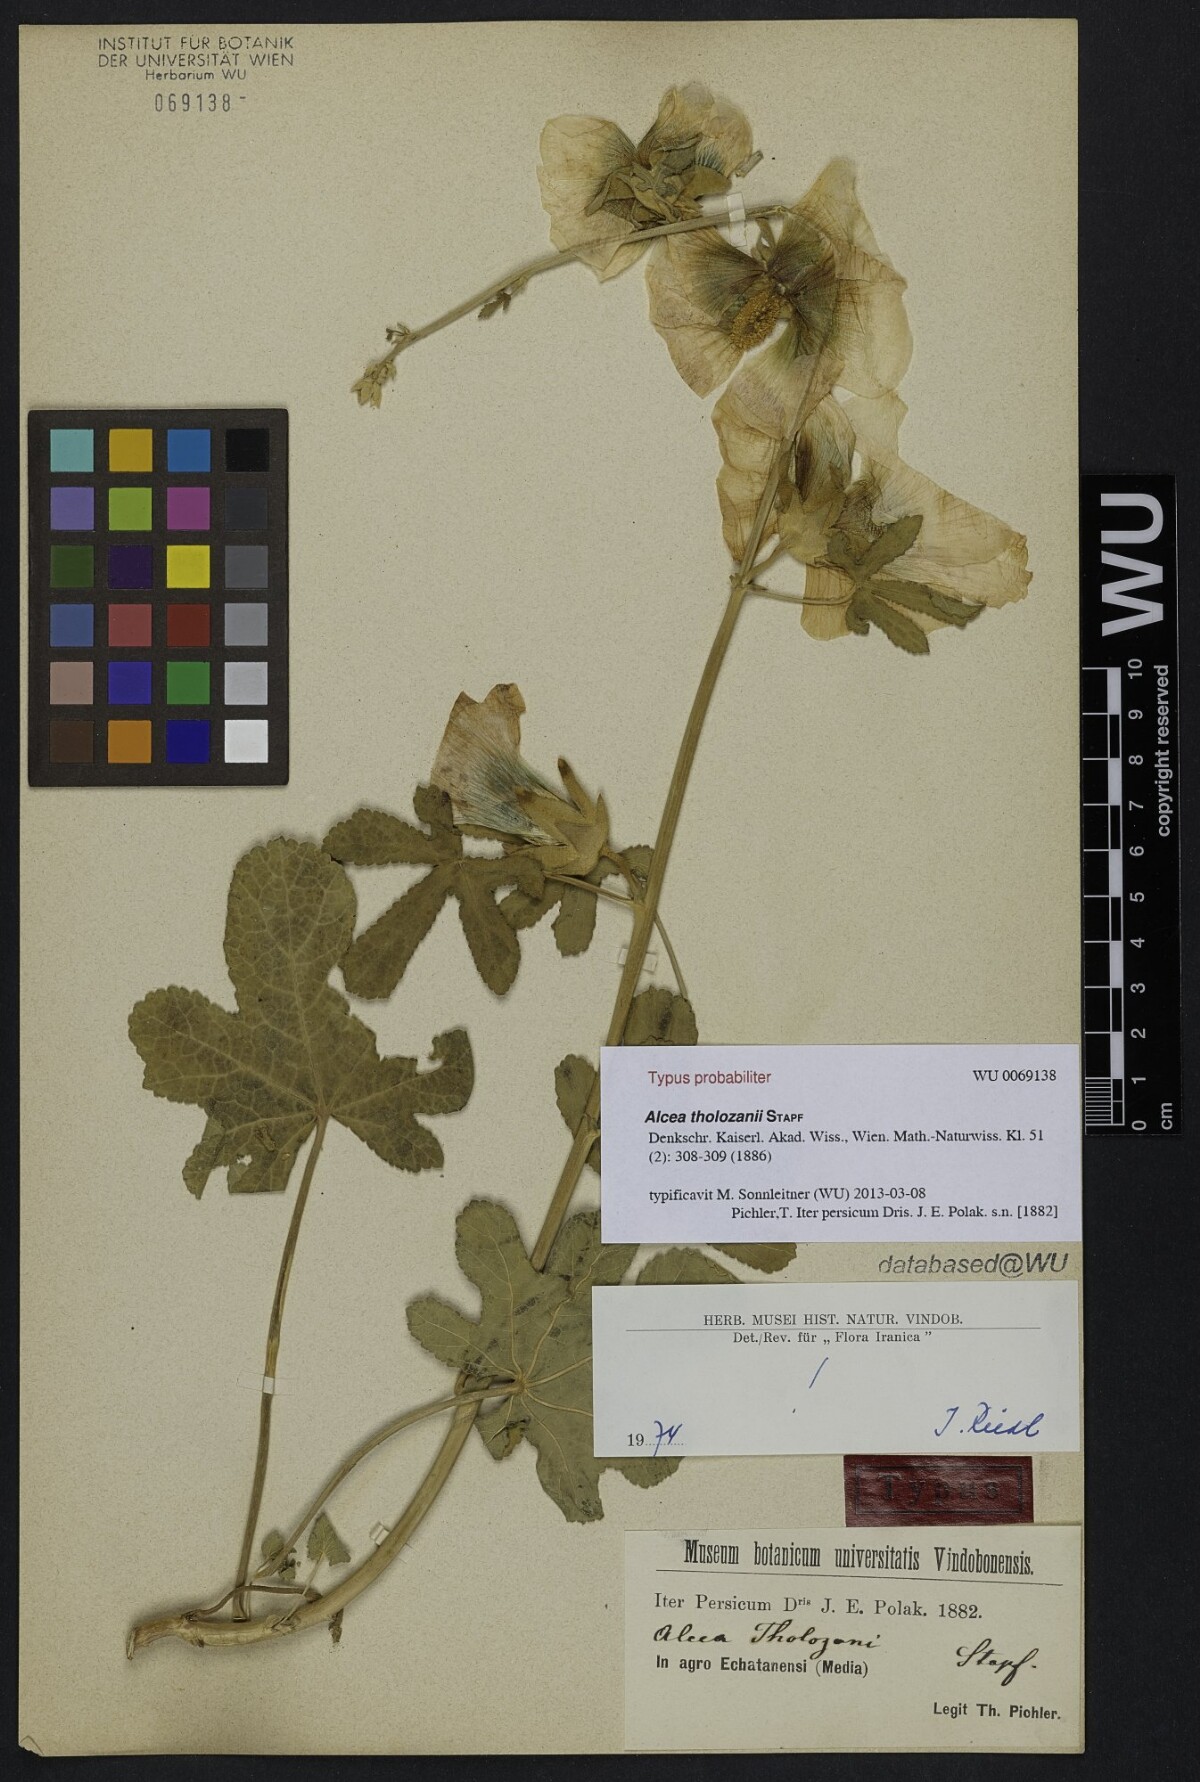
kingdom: Plantae
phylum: Tracheophyta
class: Magnoliopsida
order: Malvales
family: Malvaceae
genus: Alcea
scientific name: Alcea tholozani
